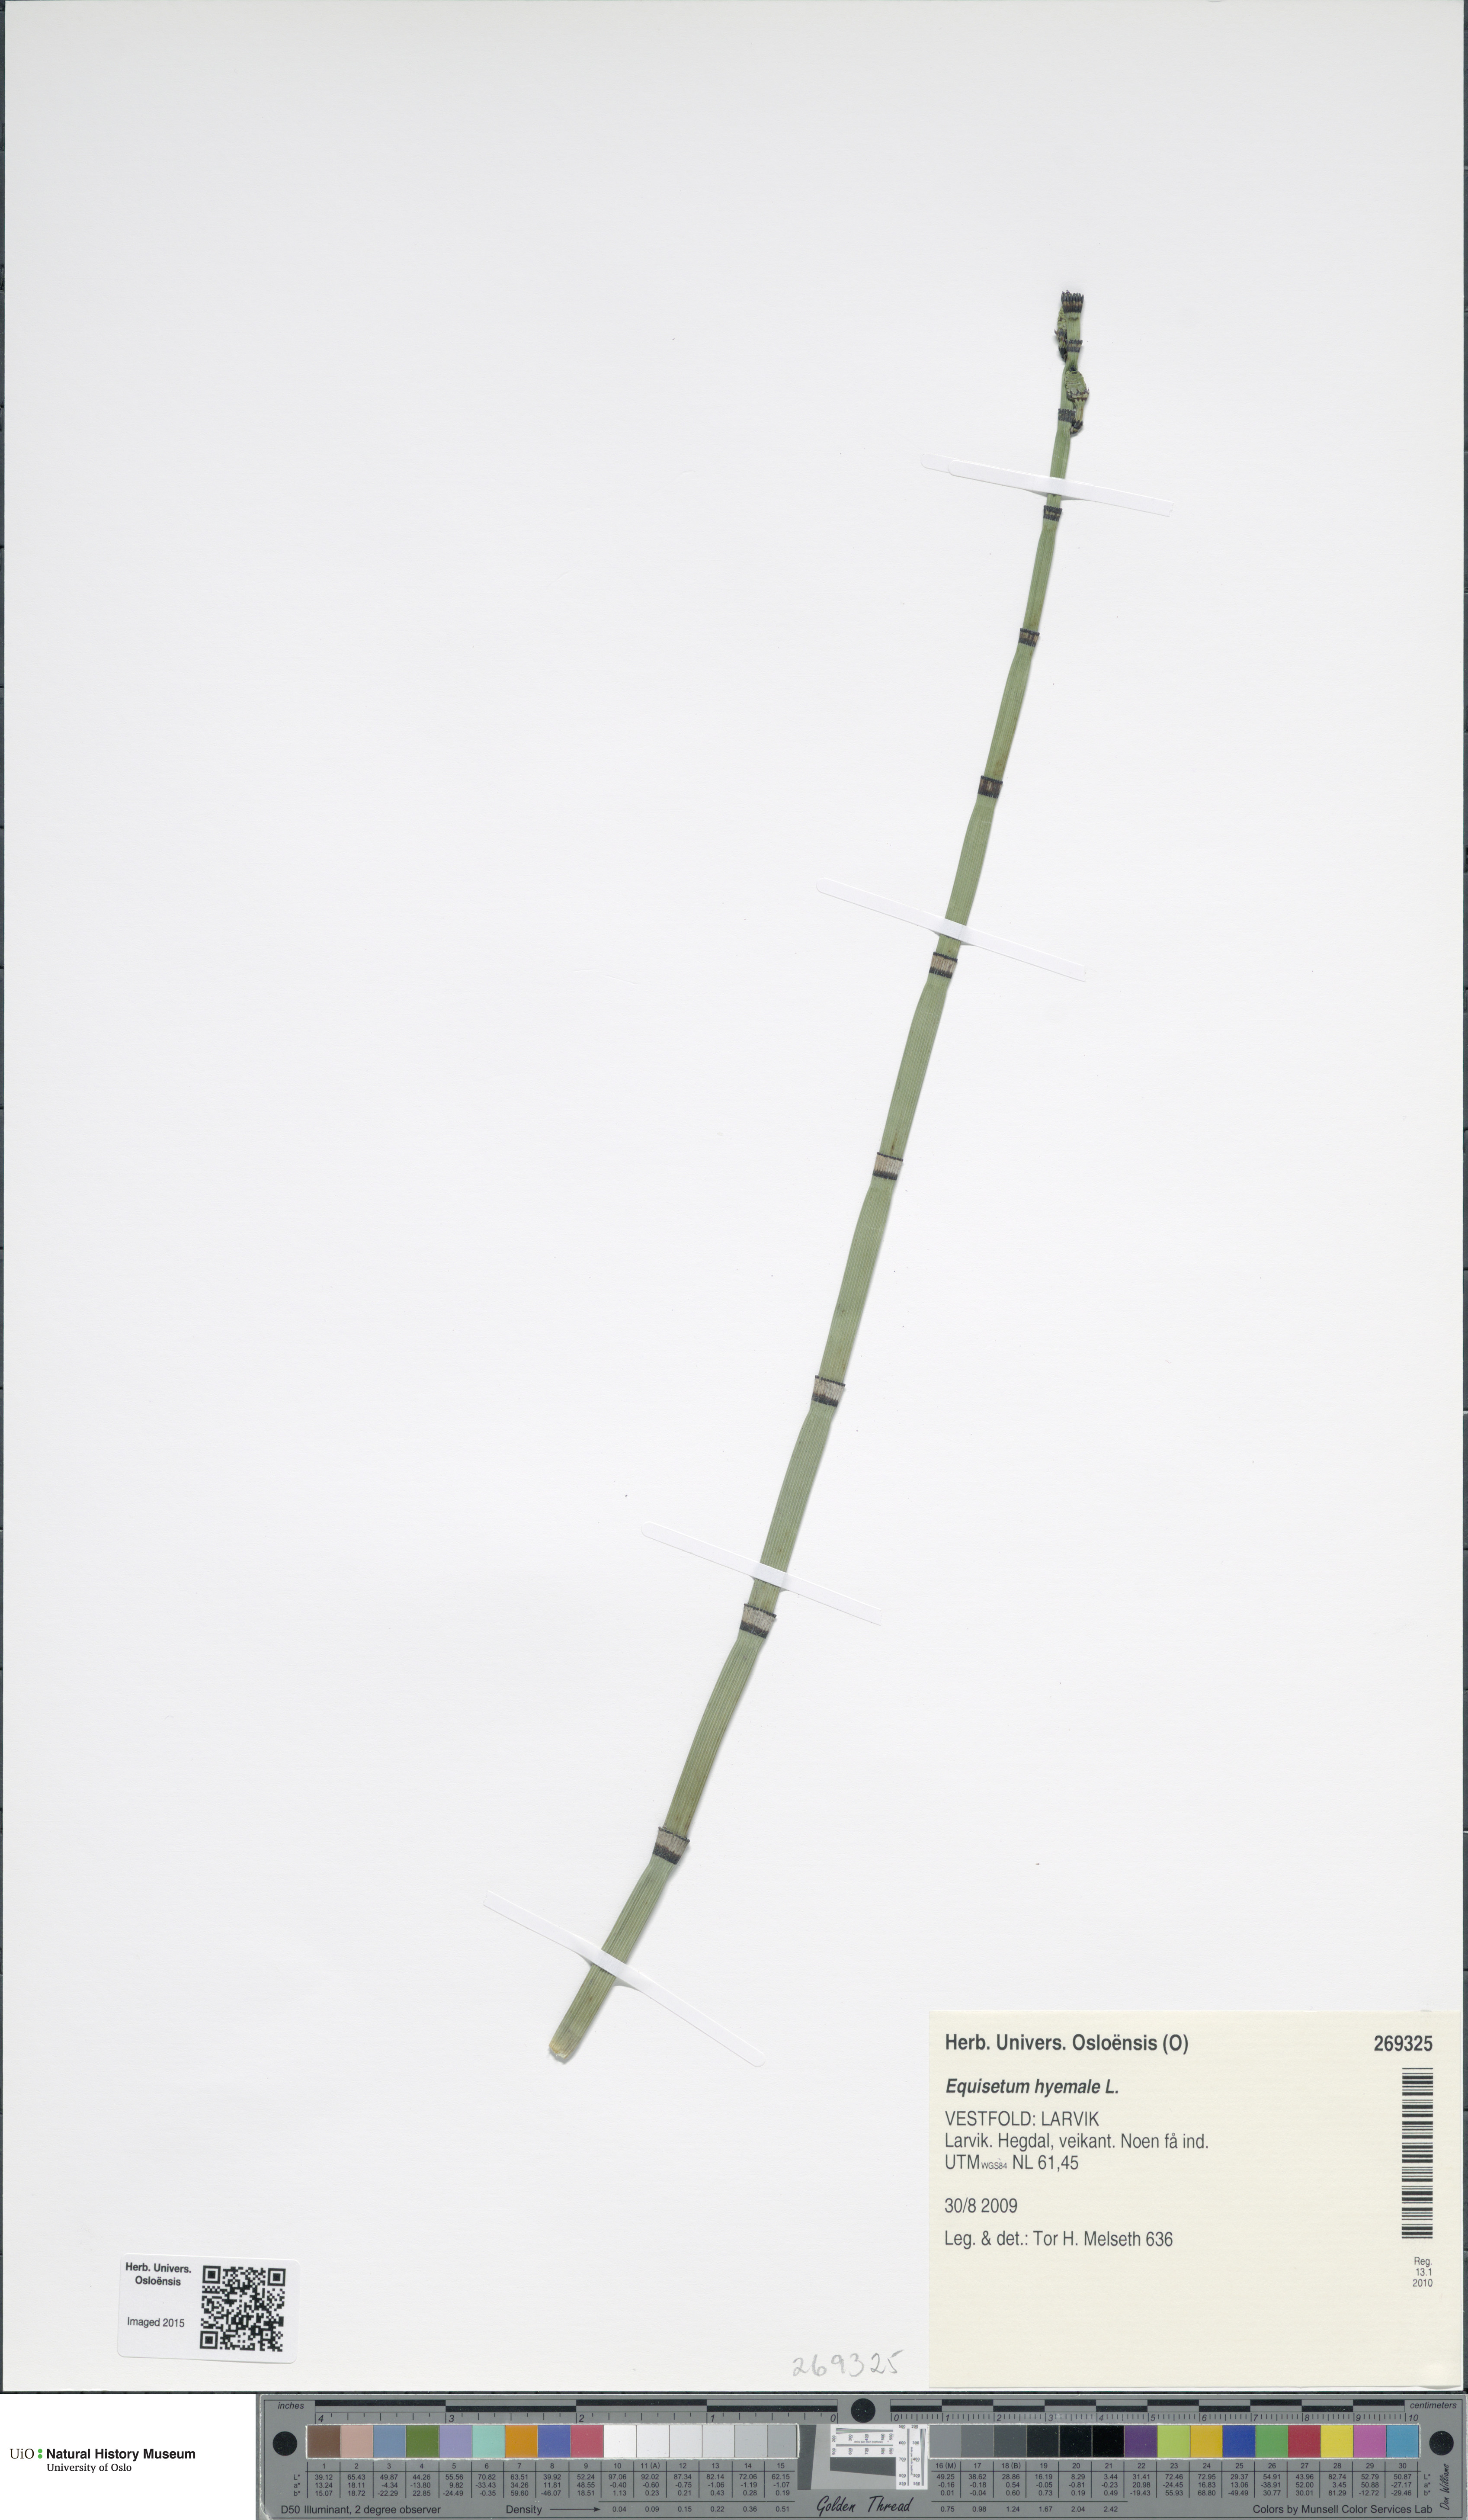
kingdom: Plantae
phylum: Tracheophyta
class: Polypodiopsida
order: Equisetales
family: Equisetaceae
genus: Equisetum
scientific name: Equisetum hyemale
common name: Rough horsetail
